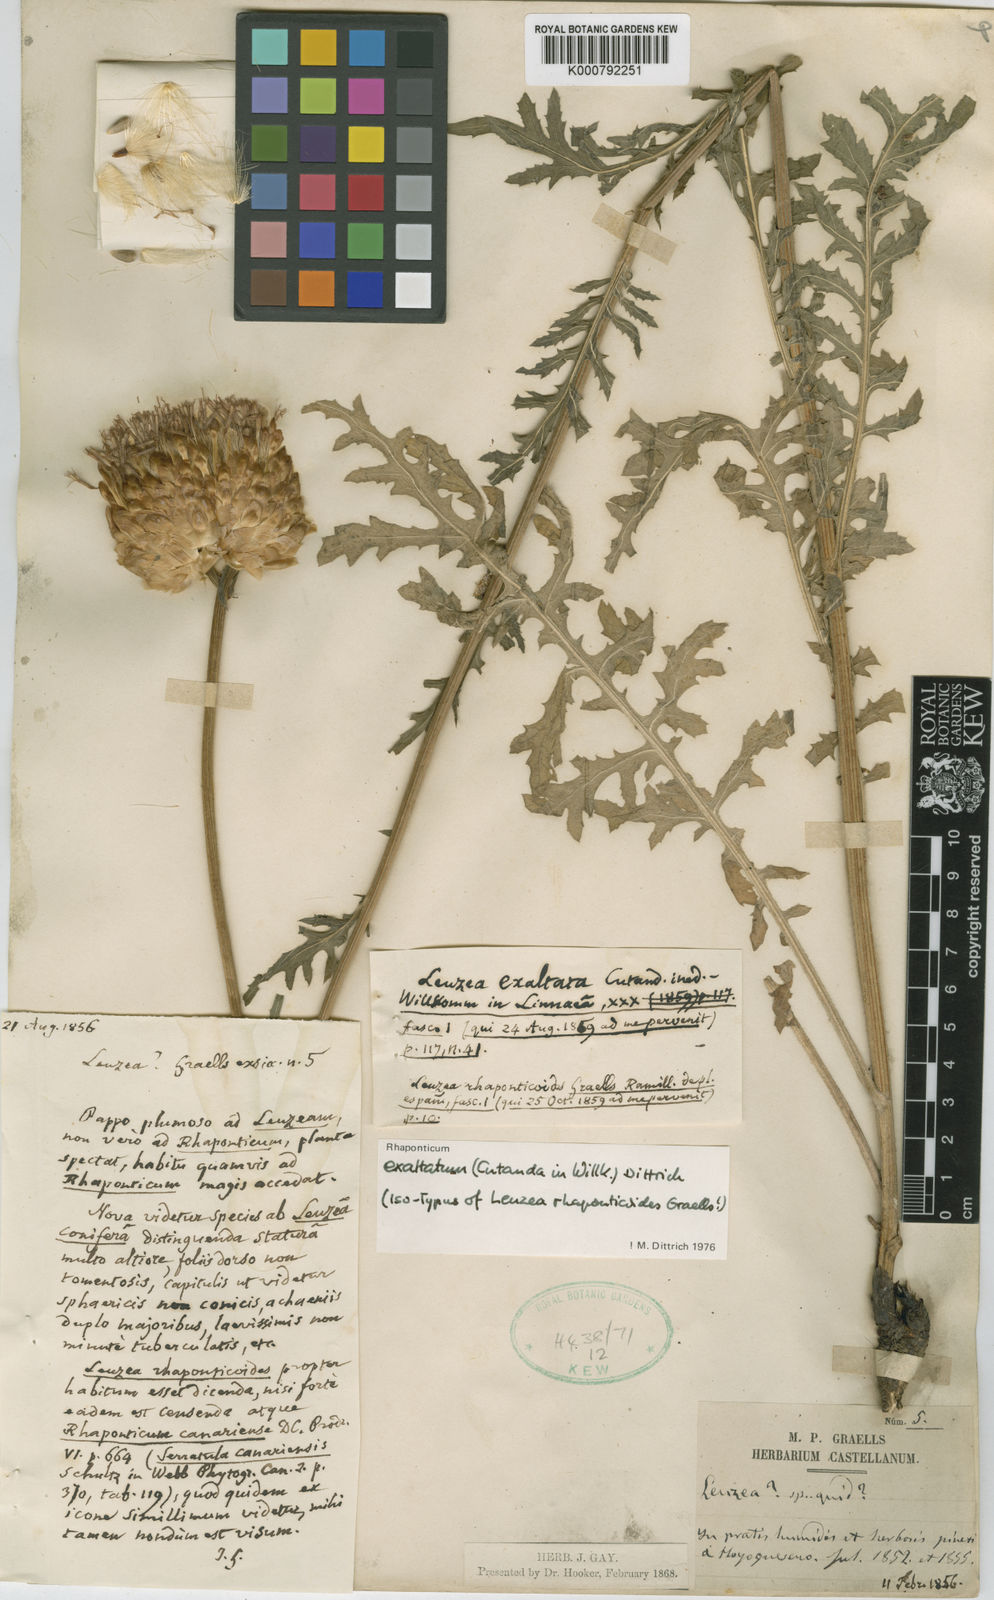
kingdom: Plantae
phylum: Tracheophyta
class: Magnoliopsida
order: Asterales
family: Asteraceae
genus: Leuzea
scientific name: Leuzea
